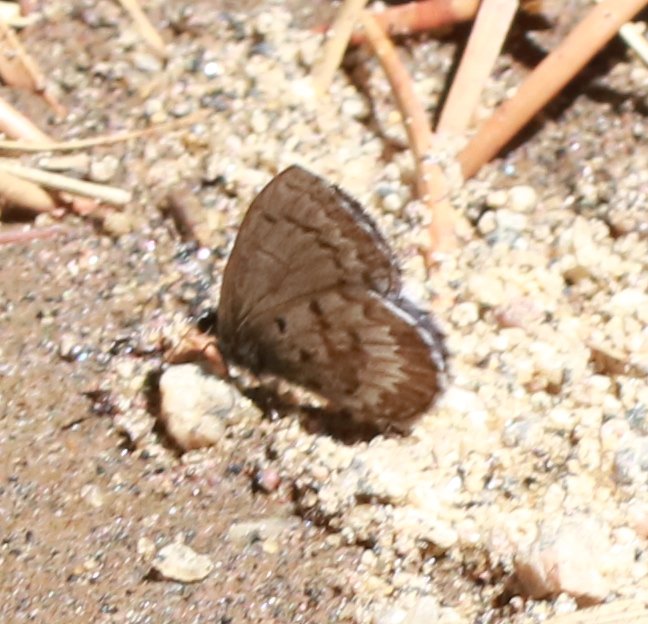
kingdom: Animalia
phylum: Arthropoda
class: Insecta
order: Lepidoptera
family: Lycaenidae
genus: Celastrina
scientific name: Celastrina lucia
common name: Northern Spring Azure
